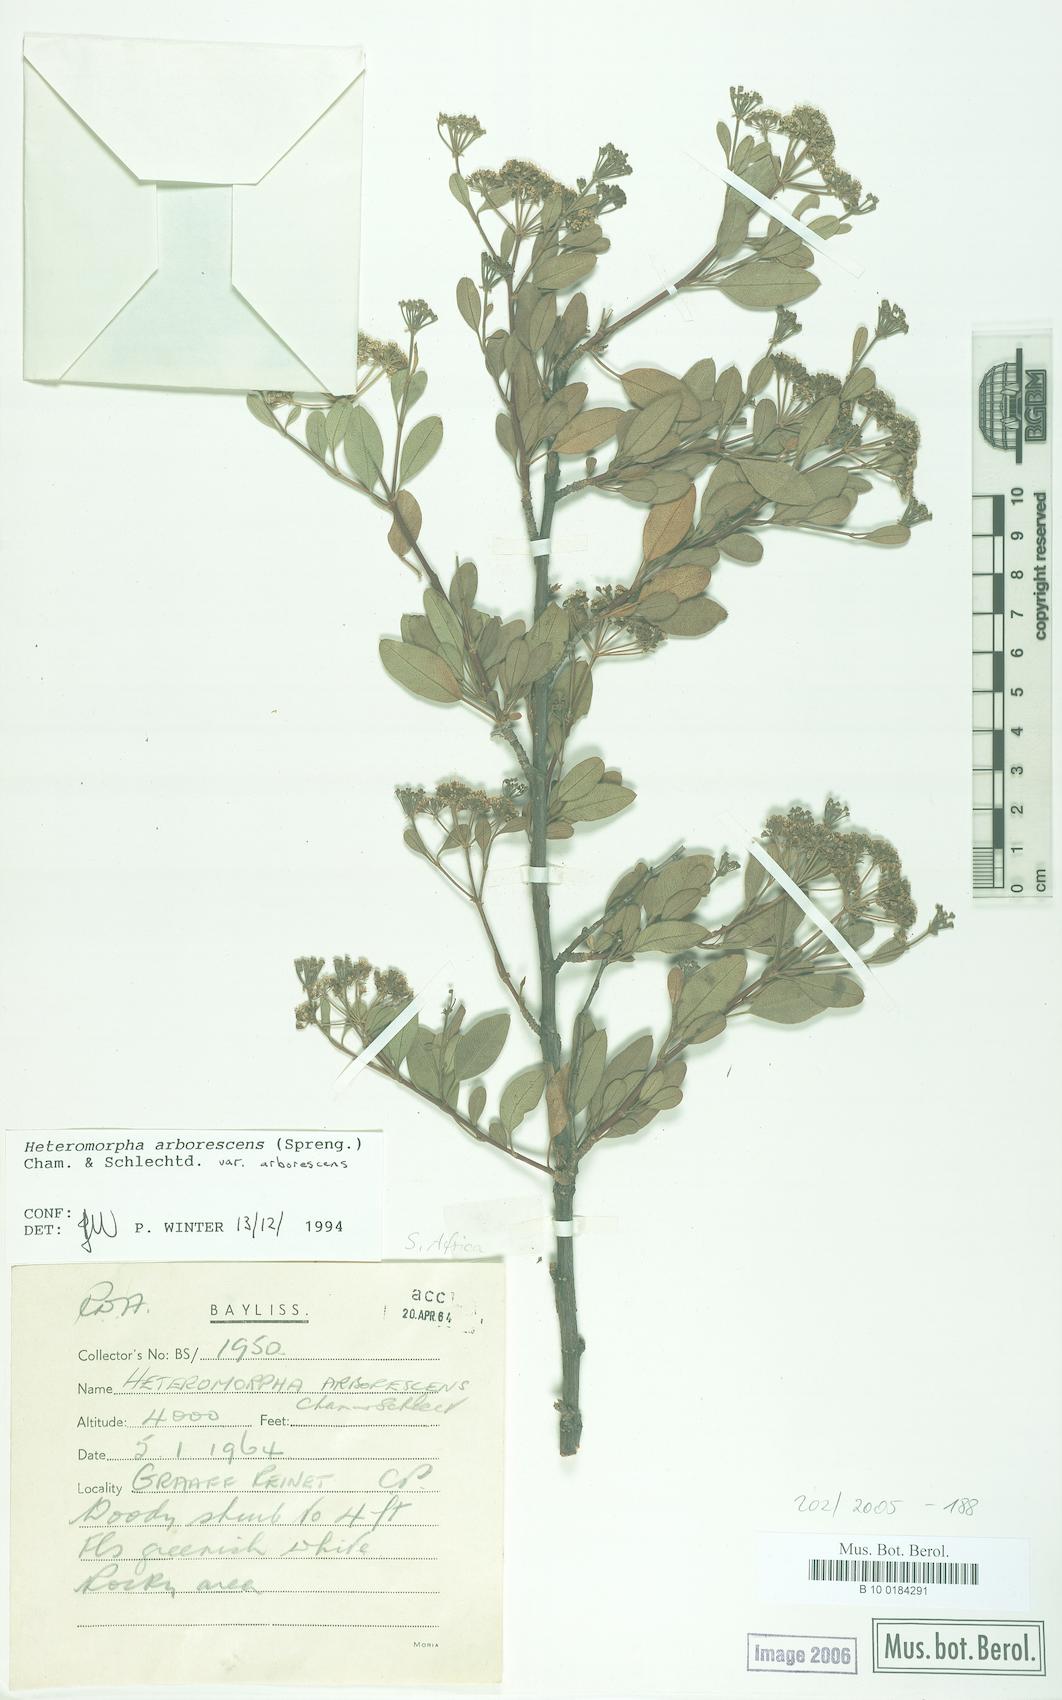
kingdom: Plantae
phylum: Tracheophyta
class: Magnoliopsida
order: Apiales
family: Apiaceae
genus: Heteromorpha
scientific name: Heteromorpha arborescens
